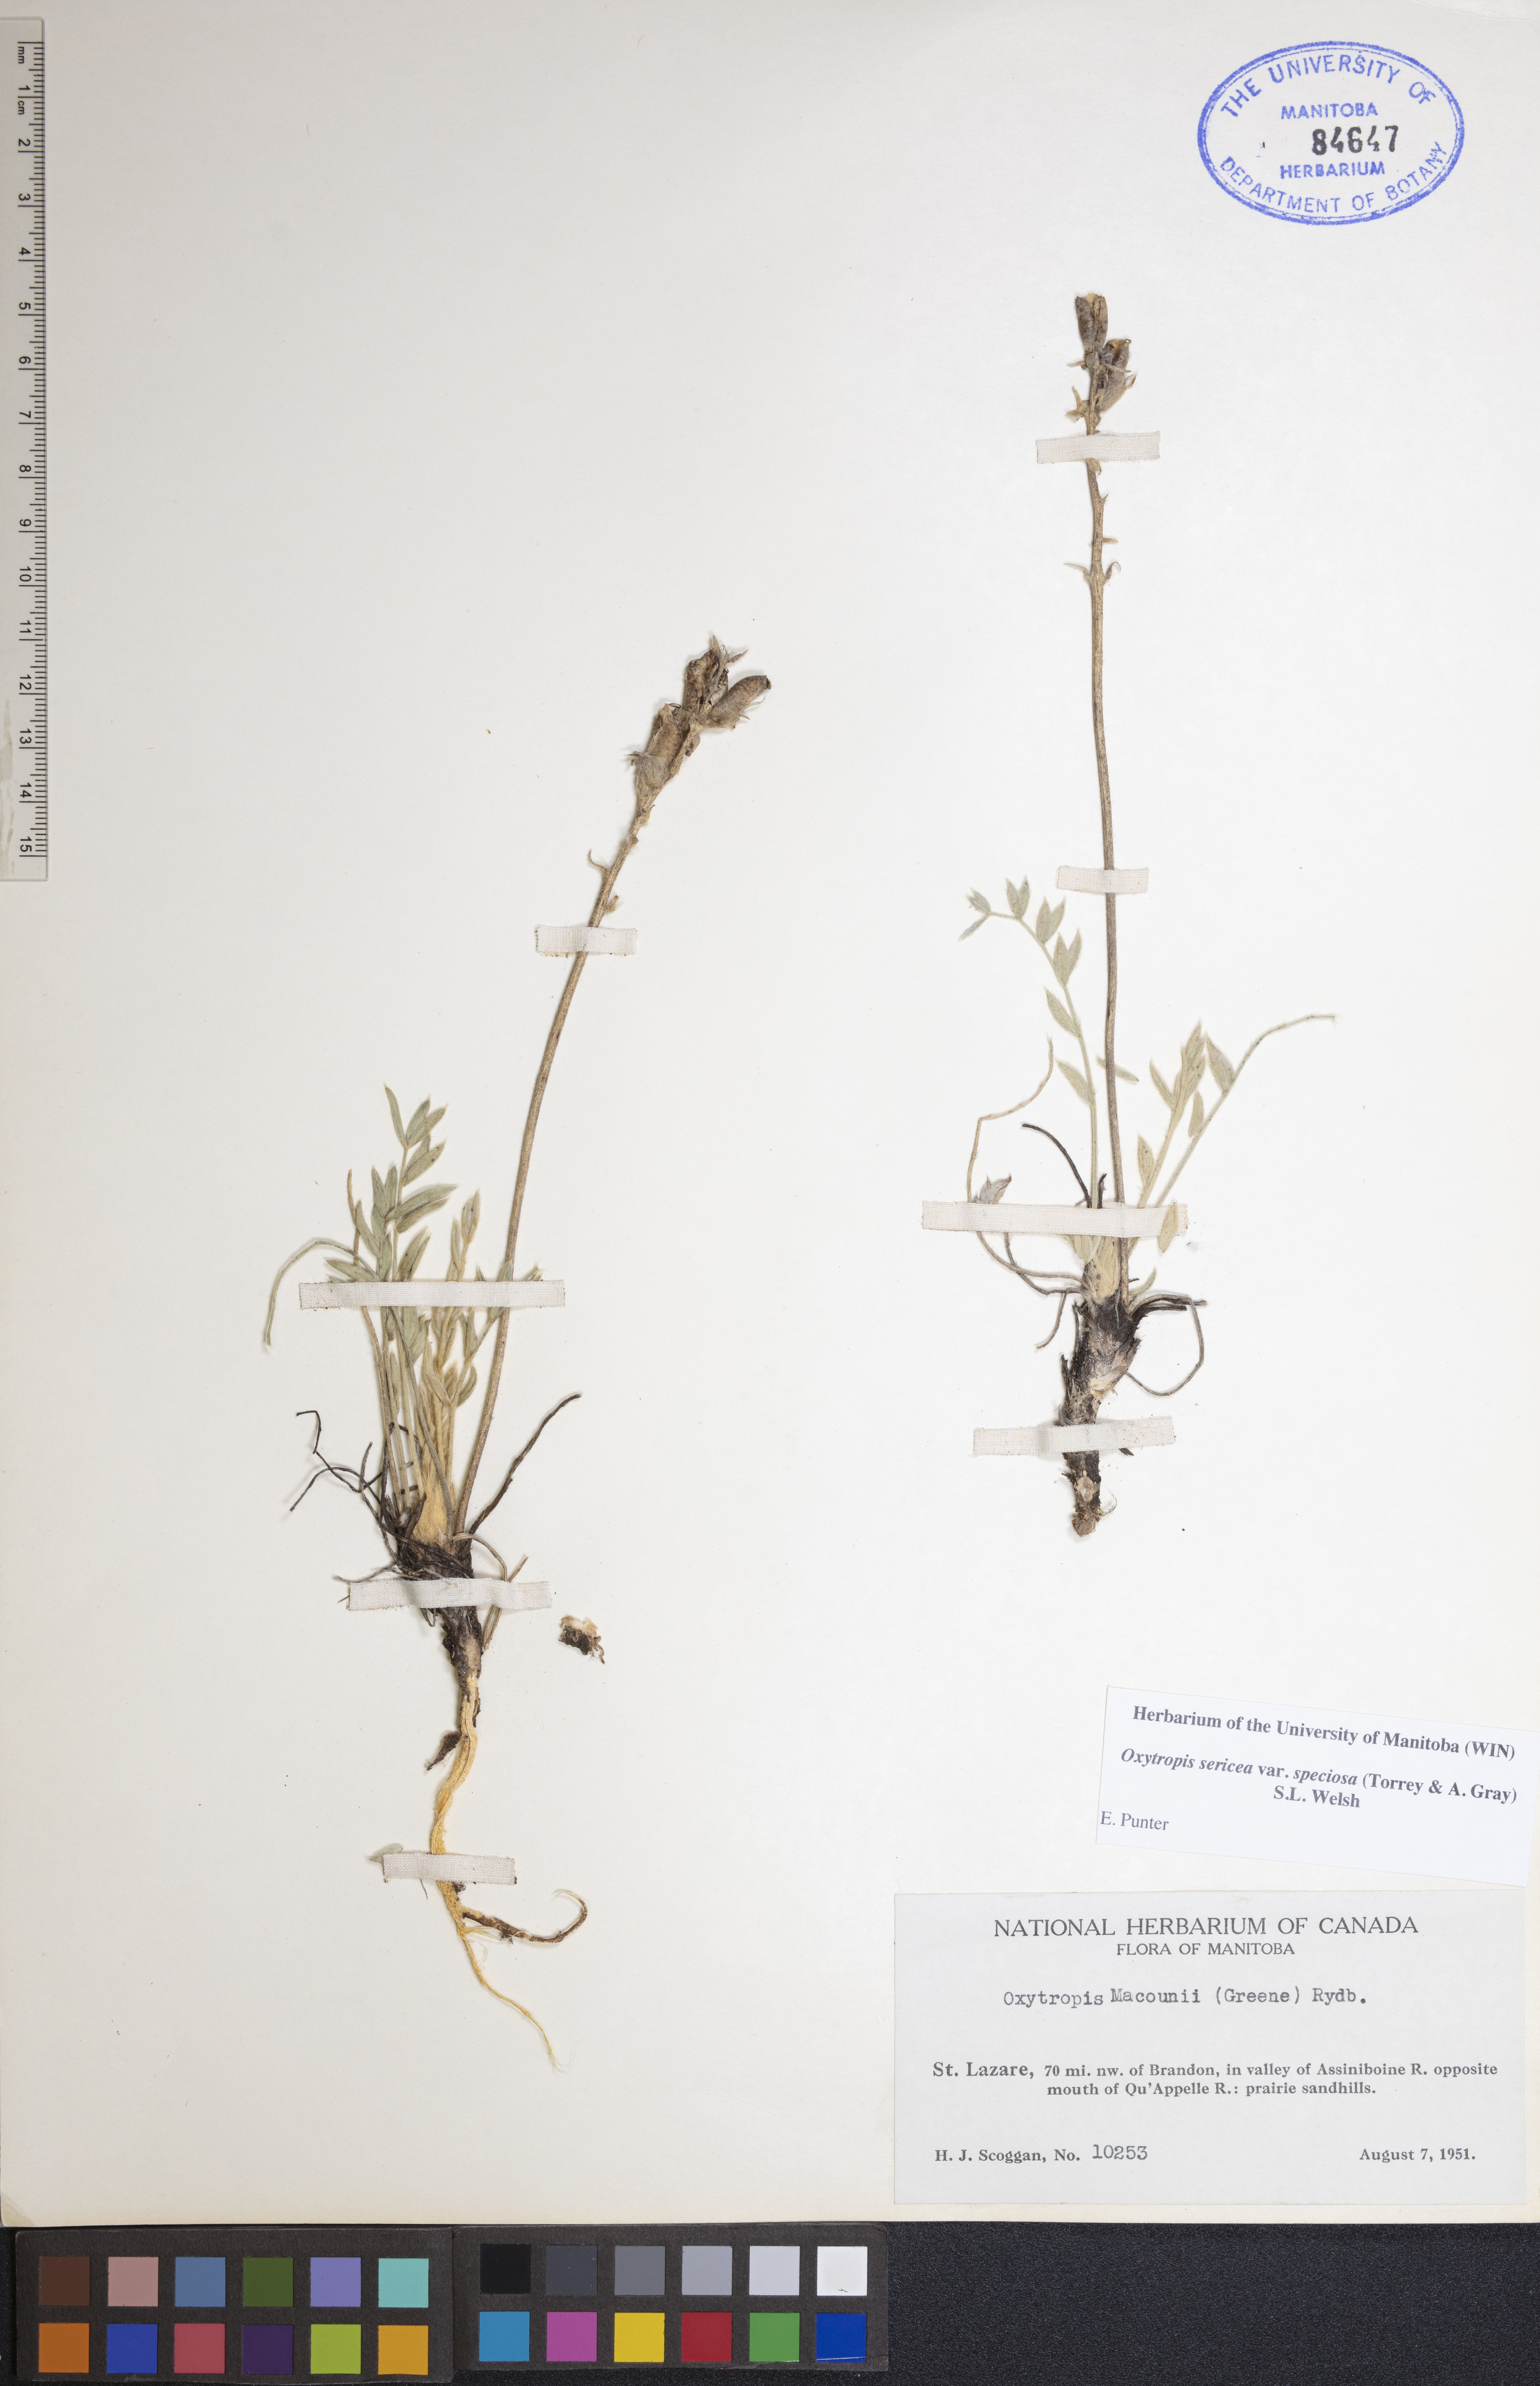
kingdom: Plantae
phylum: Tracheophyta
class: Magnoliopsida
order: Fabales
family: Fabaceae
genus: Oxytropis
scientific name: Oxytropis sericea
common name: Silky locoweed
